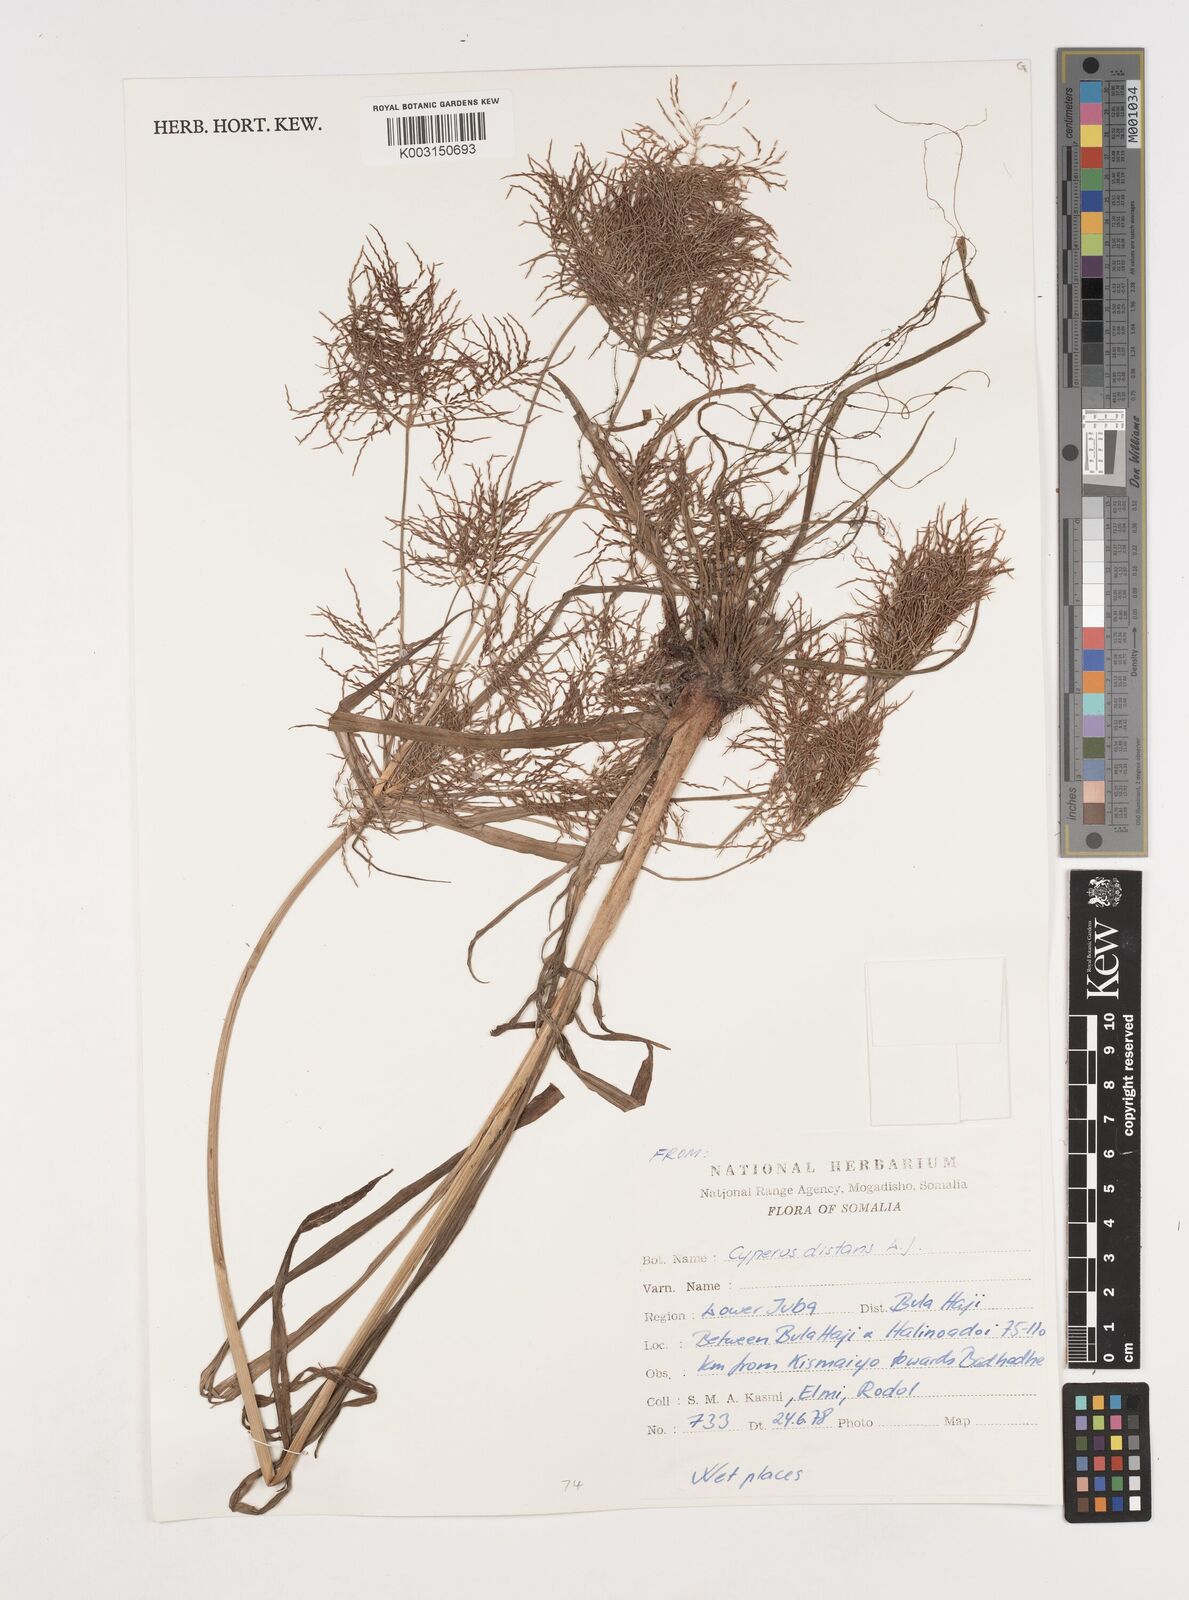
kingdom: Plantae
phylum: Tracheophyta
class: Liliopsida
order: Poales
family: Cyperaceae
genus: Cyperus
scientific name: Cyperus distans
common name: Slender cyperus
